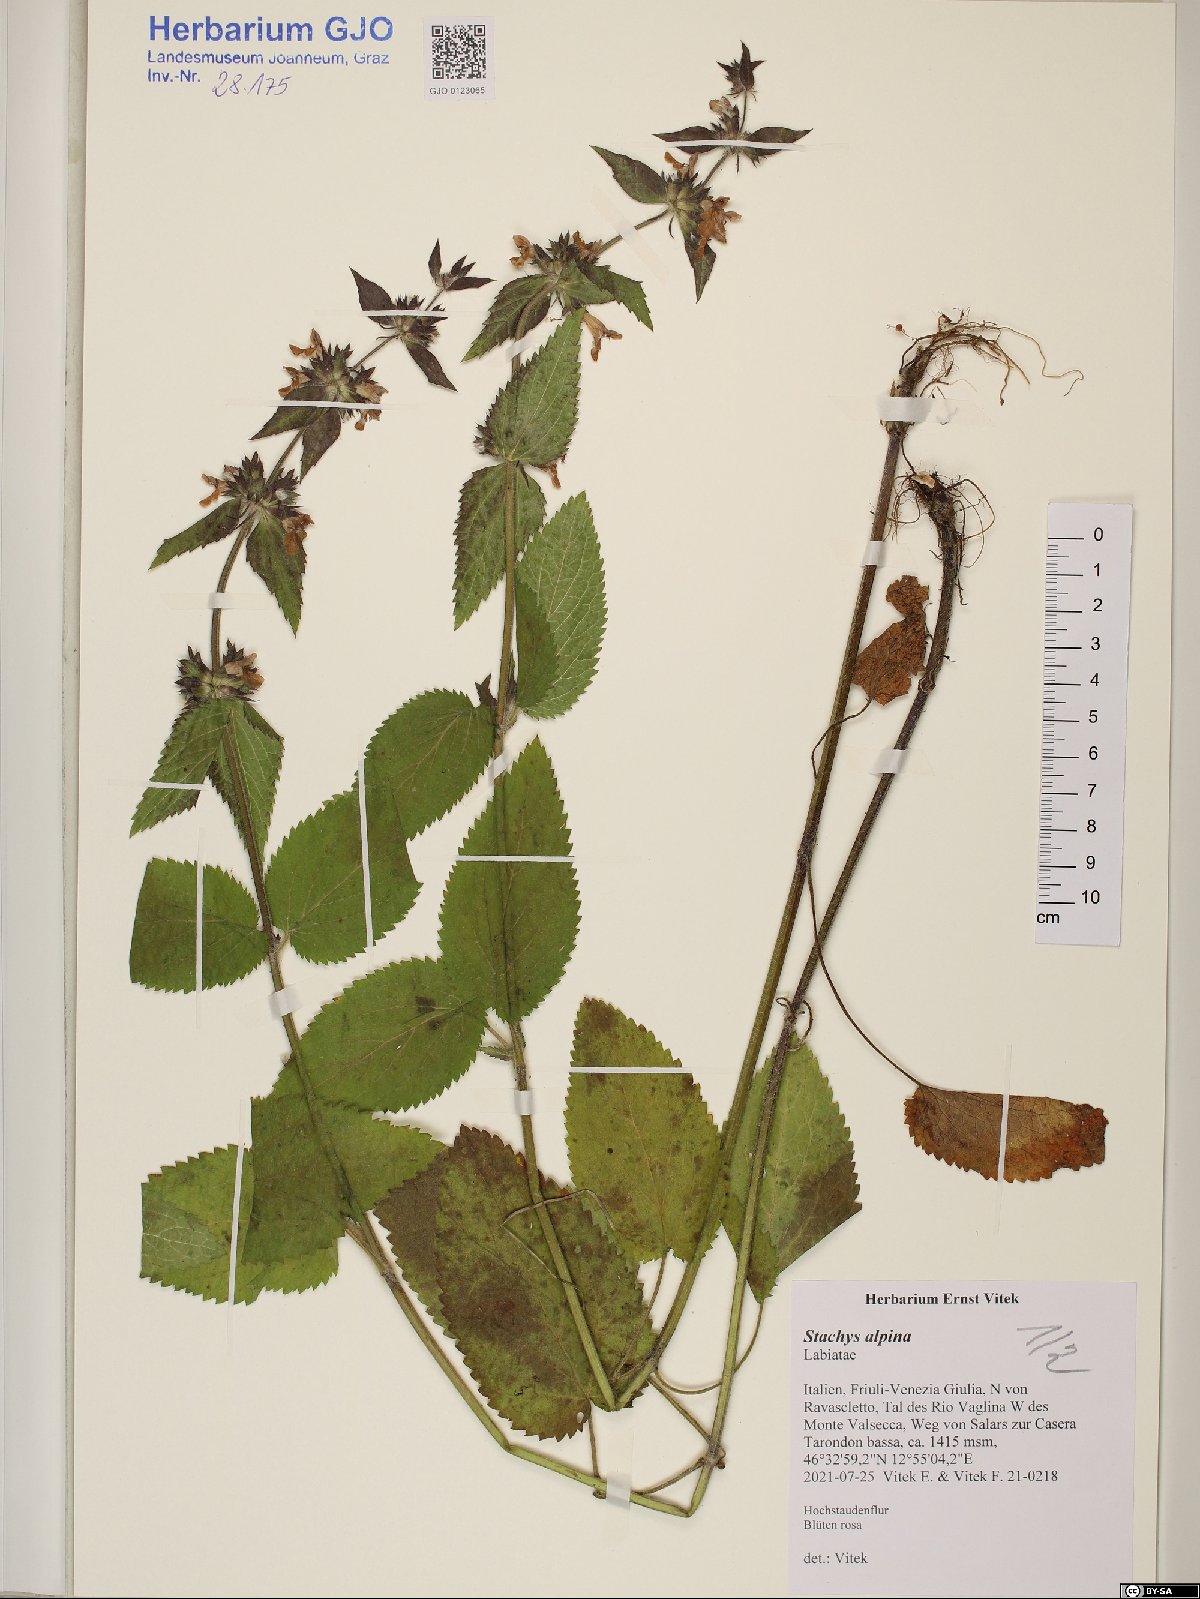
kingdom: Plantae
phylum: Tracheophyta
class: Magnoliopsida
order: Lamiales
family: Lamiaceae
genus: Stachys
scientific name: Stachys alpina
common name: Limestone woundwort
